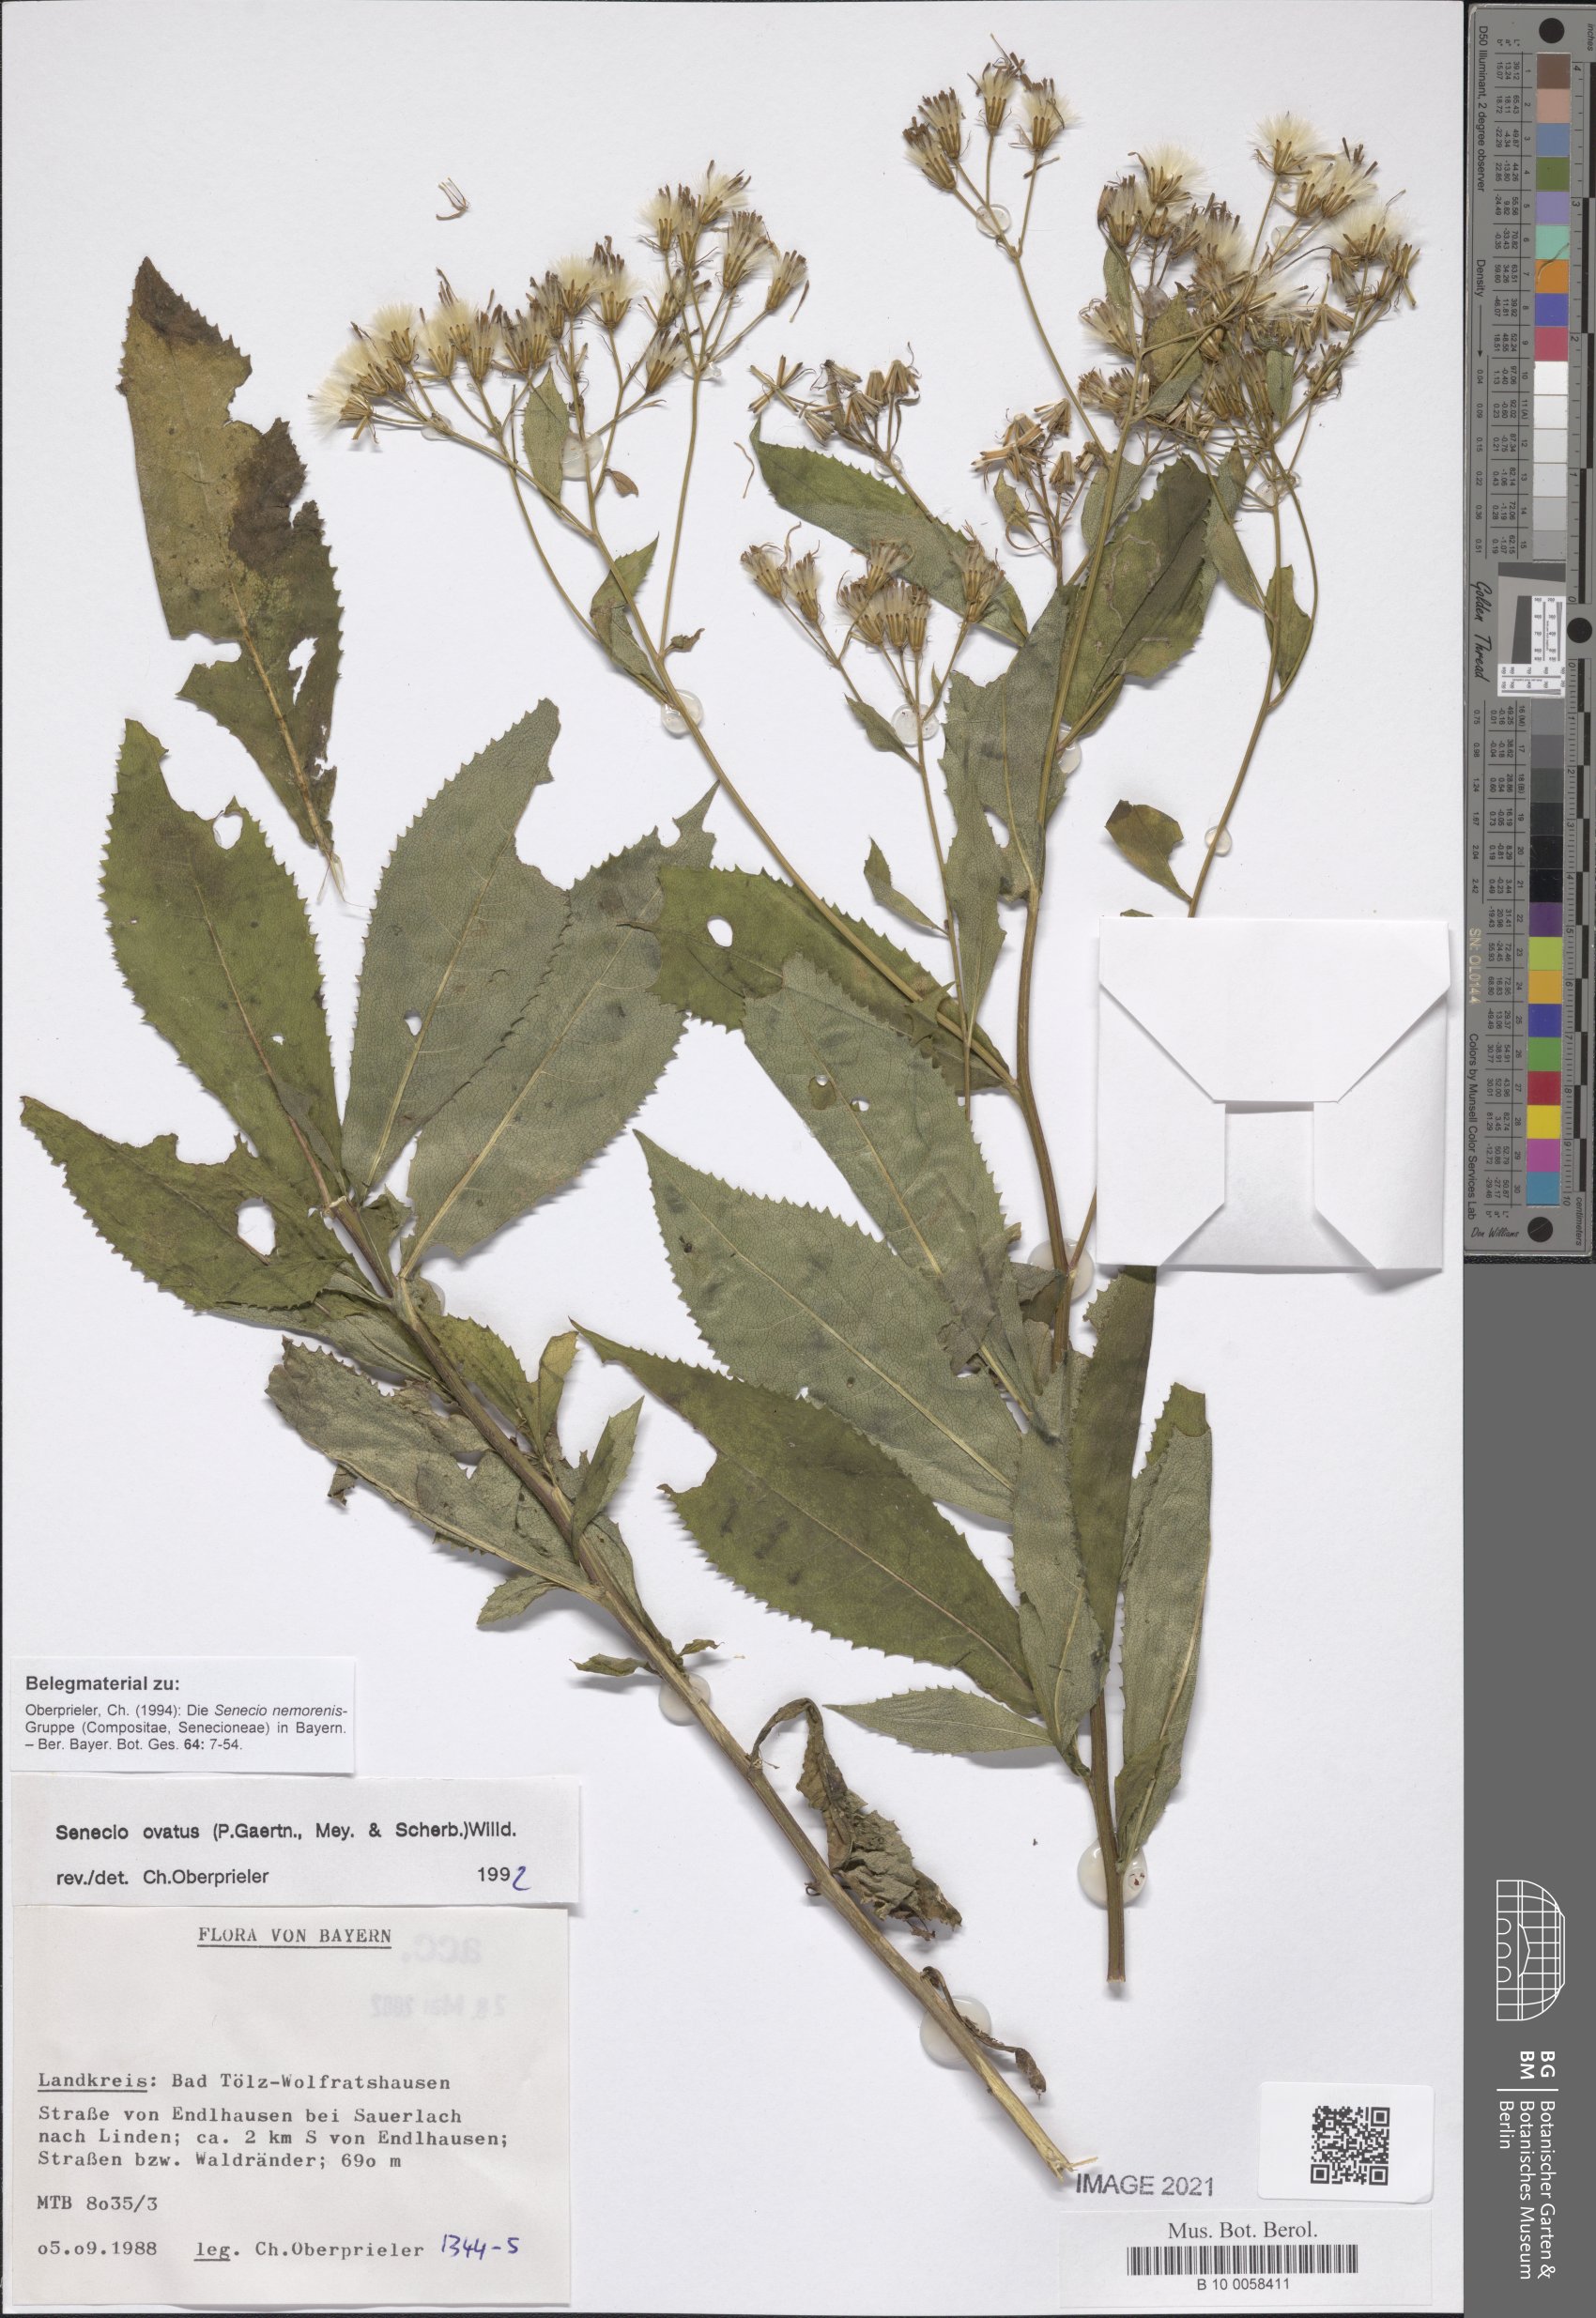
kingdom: Plantae
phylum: Tracheophyta
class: Magnoliopsida
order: Asterales
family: Asteraceae
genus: Senecio
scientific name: Senecio ovatus
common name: Wood ragwort
